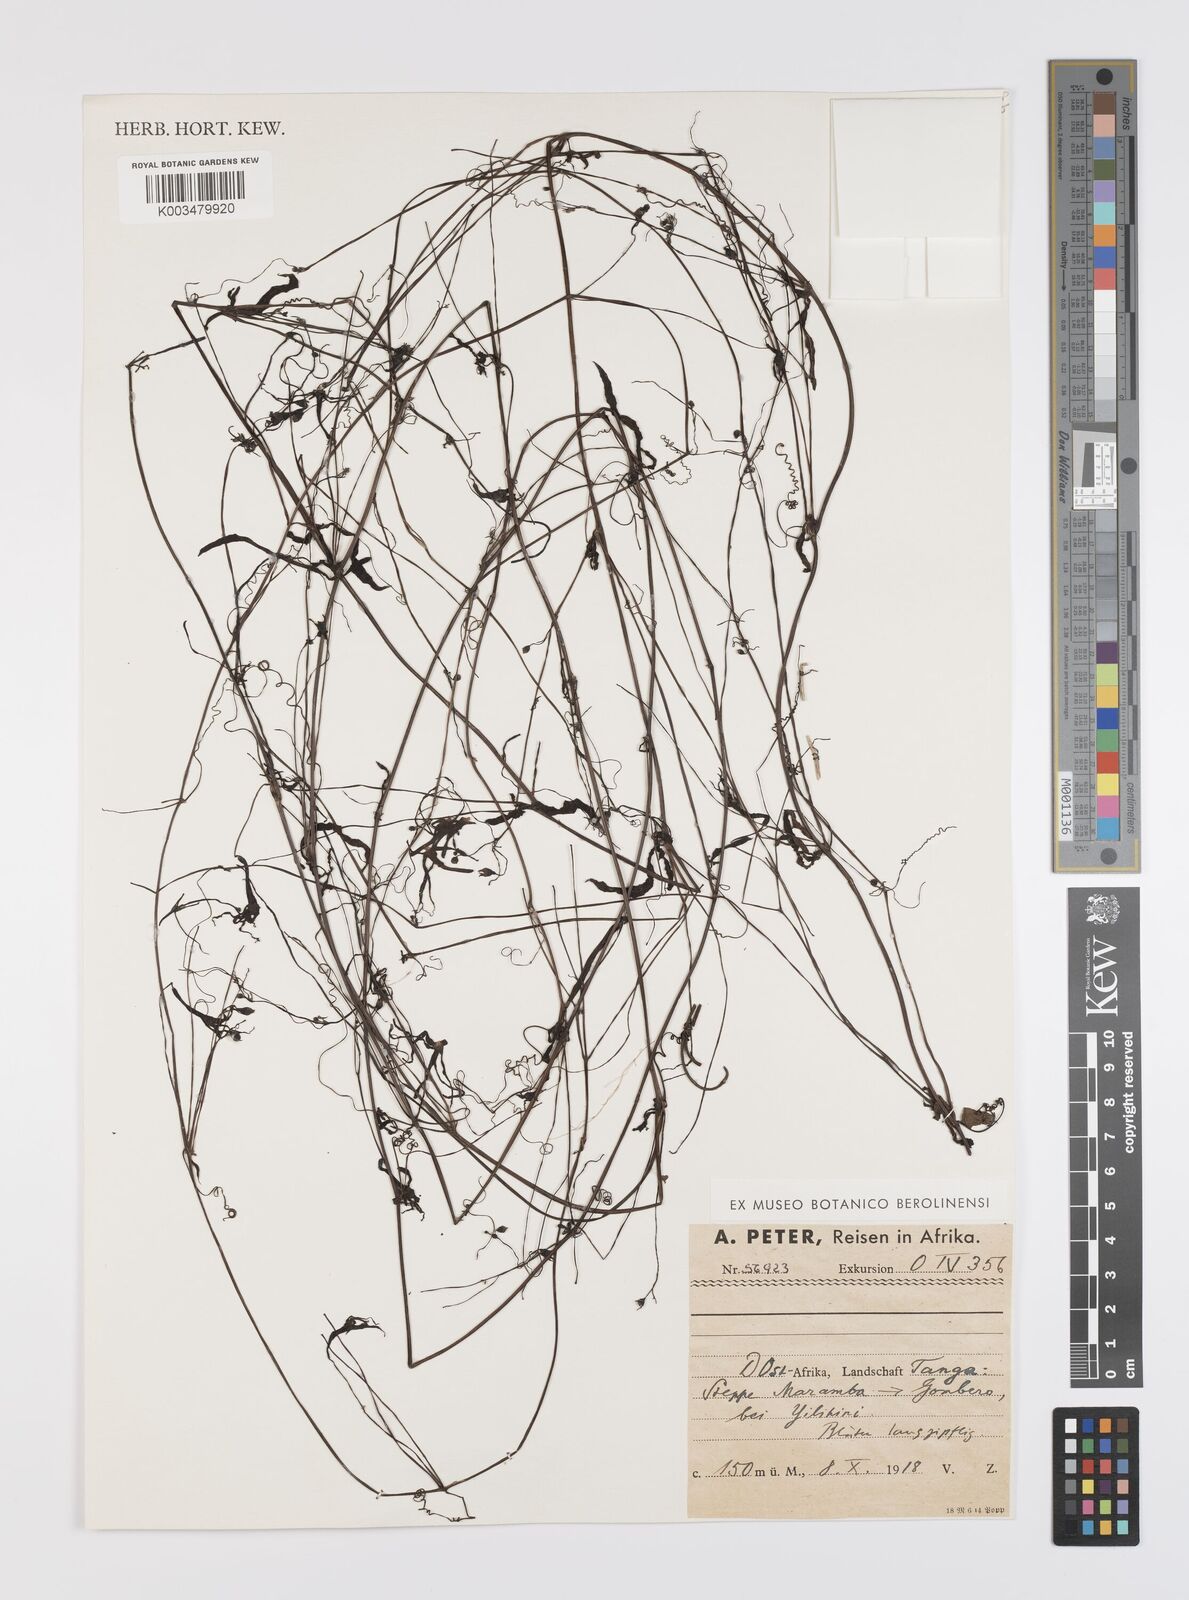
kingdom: Plantae
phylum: Tracheophyta
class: Magnoliopsida
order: Cucurbitales
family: Cucurbitaceae
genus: Trochomeria
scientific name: Trochomeria macrocarpa
